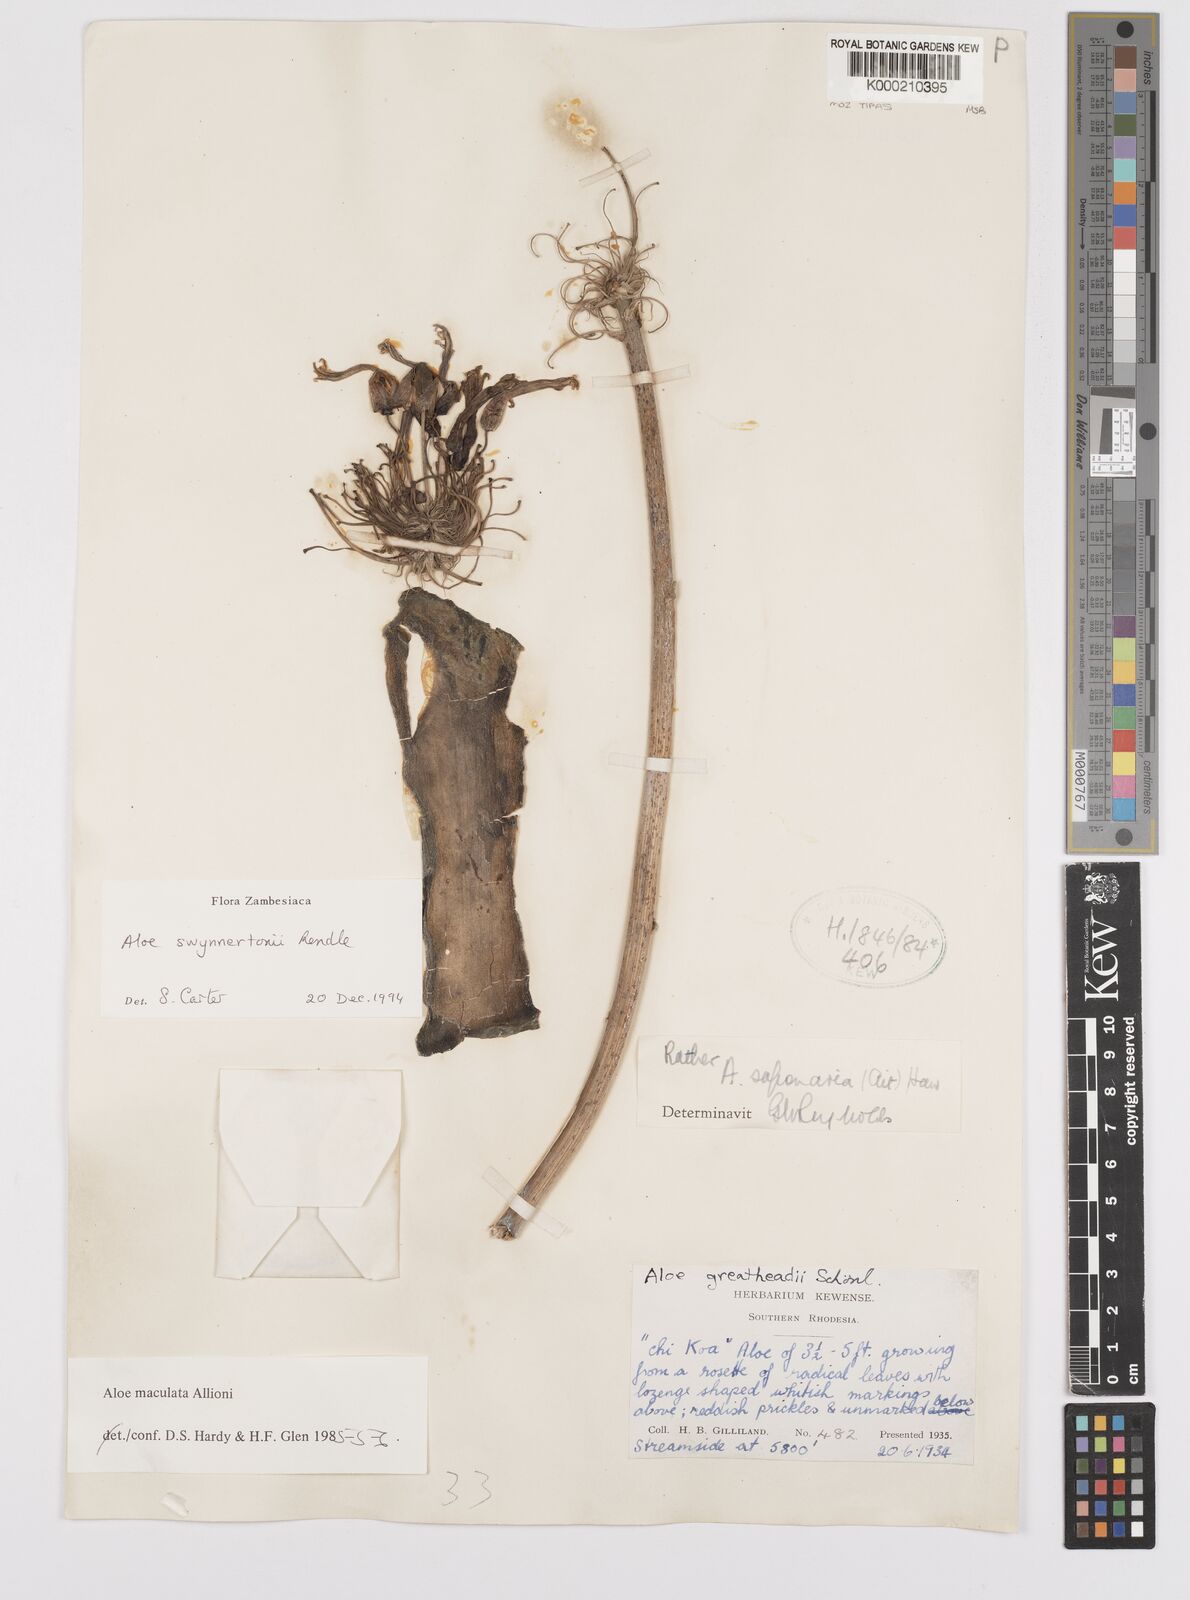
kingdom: Plantae
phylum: Tracheophyta
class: Liliopsida
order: Asparagales
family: Asphodelaceae
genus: Aloe
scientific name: Aloe swynnertonii
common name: Swynnerton's aloe
